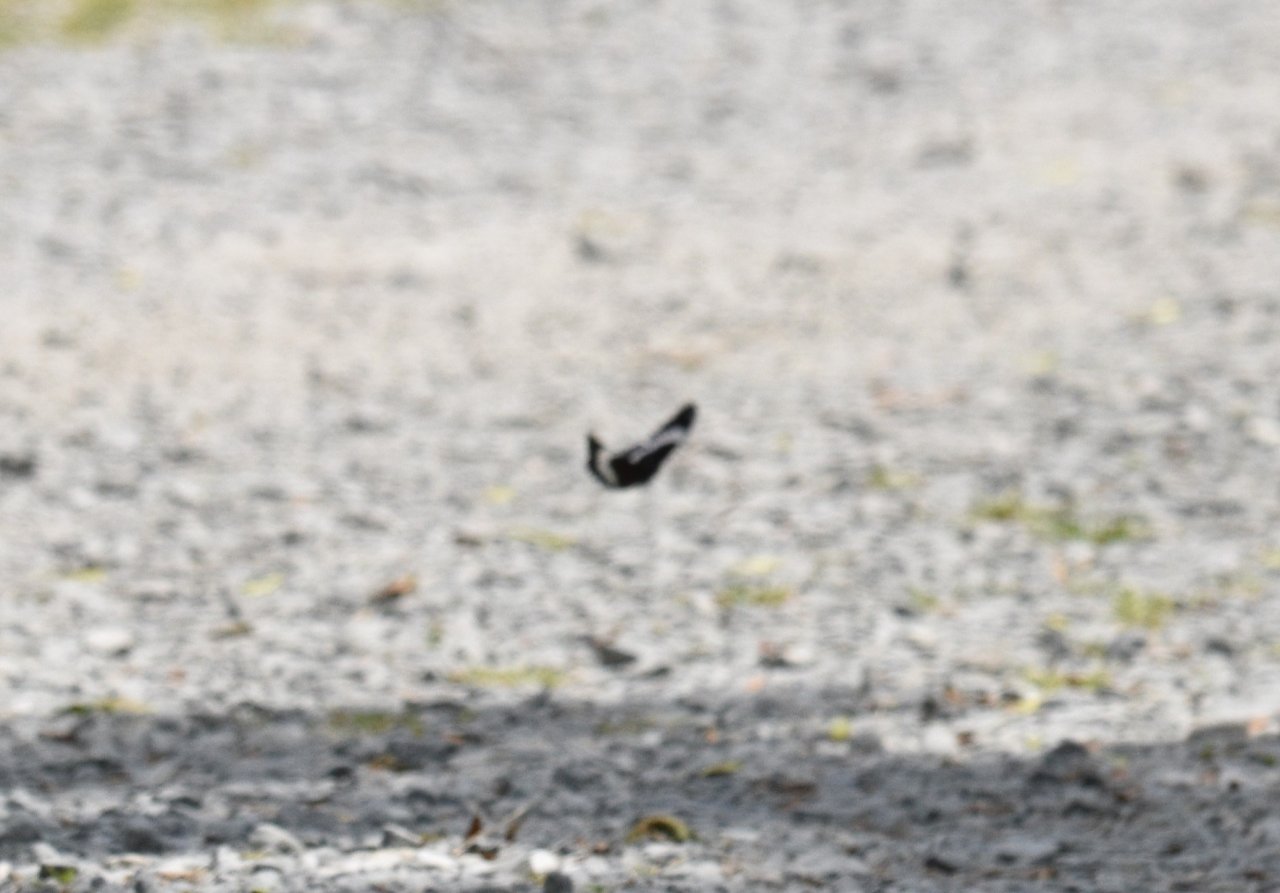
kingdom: Animalia
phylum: Arthropoda
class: Insecta
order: Lepidoptera
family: Nymphalidae
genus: Limenitis
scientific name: Limenitis arthemis
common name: Red-spotted Admiral
